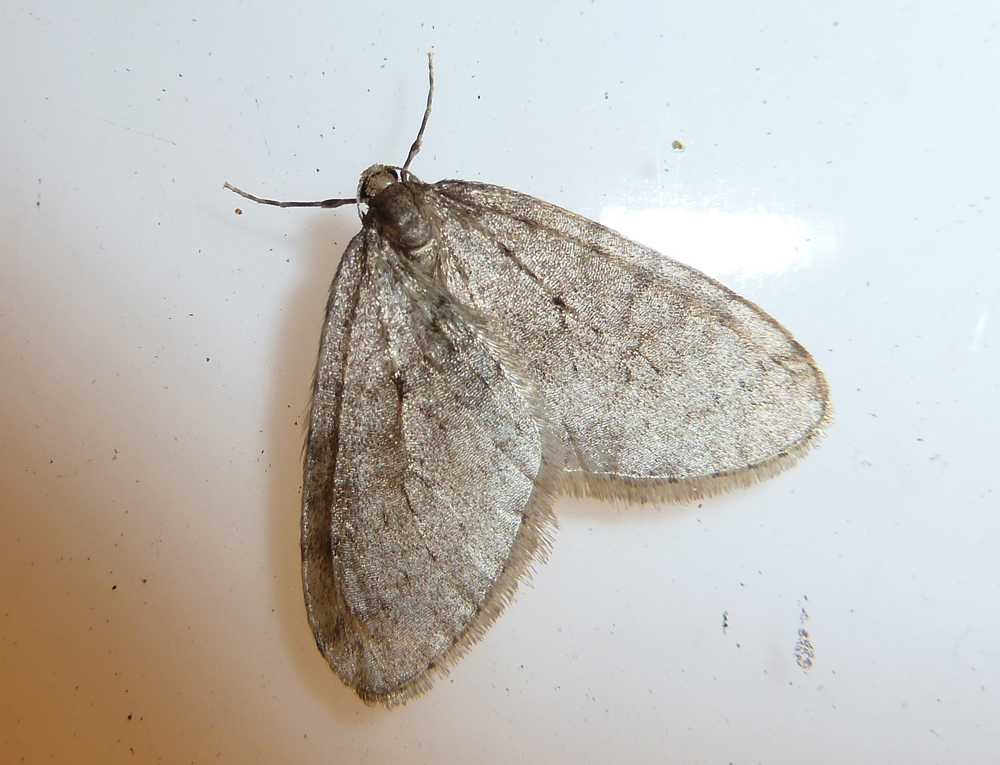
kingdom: Animalia
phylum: Arthropoda
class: Insecta
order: Lepidoptera
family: Geometridae
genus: Operophtera
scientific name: Operophtera brumata
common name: Winter moth
